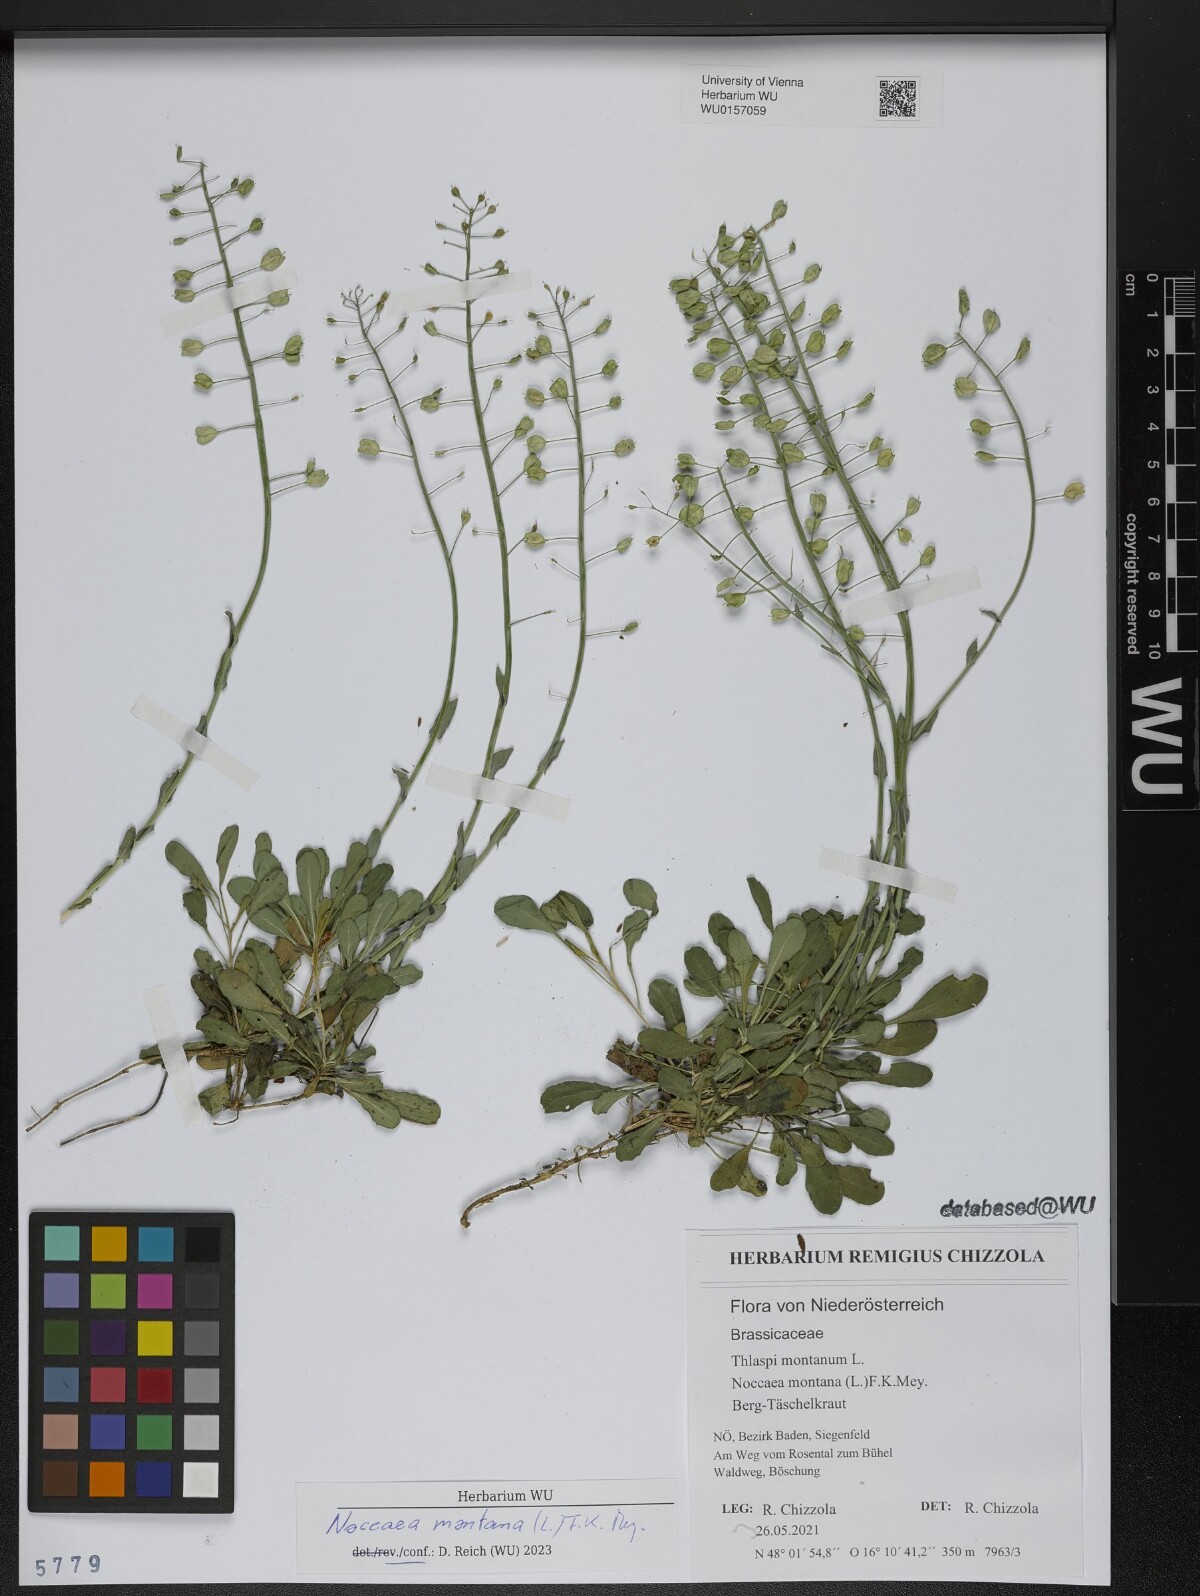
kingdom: Plantae
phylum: Tracheophyta
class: Magnoliopsida
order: Brassicales
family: Brassicaceae
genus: Noccaea
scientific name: Noccaea montana
